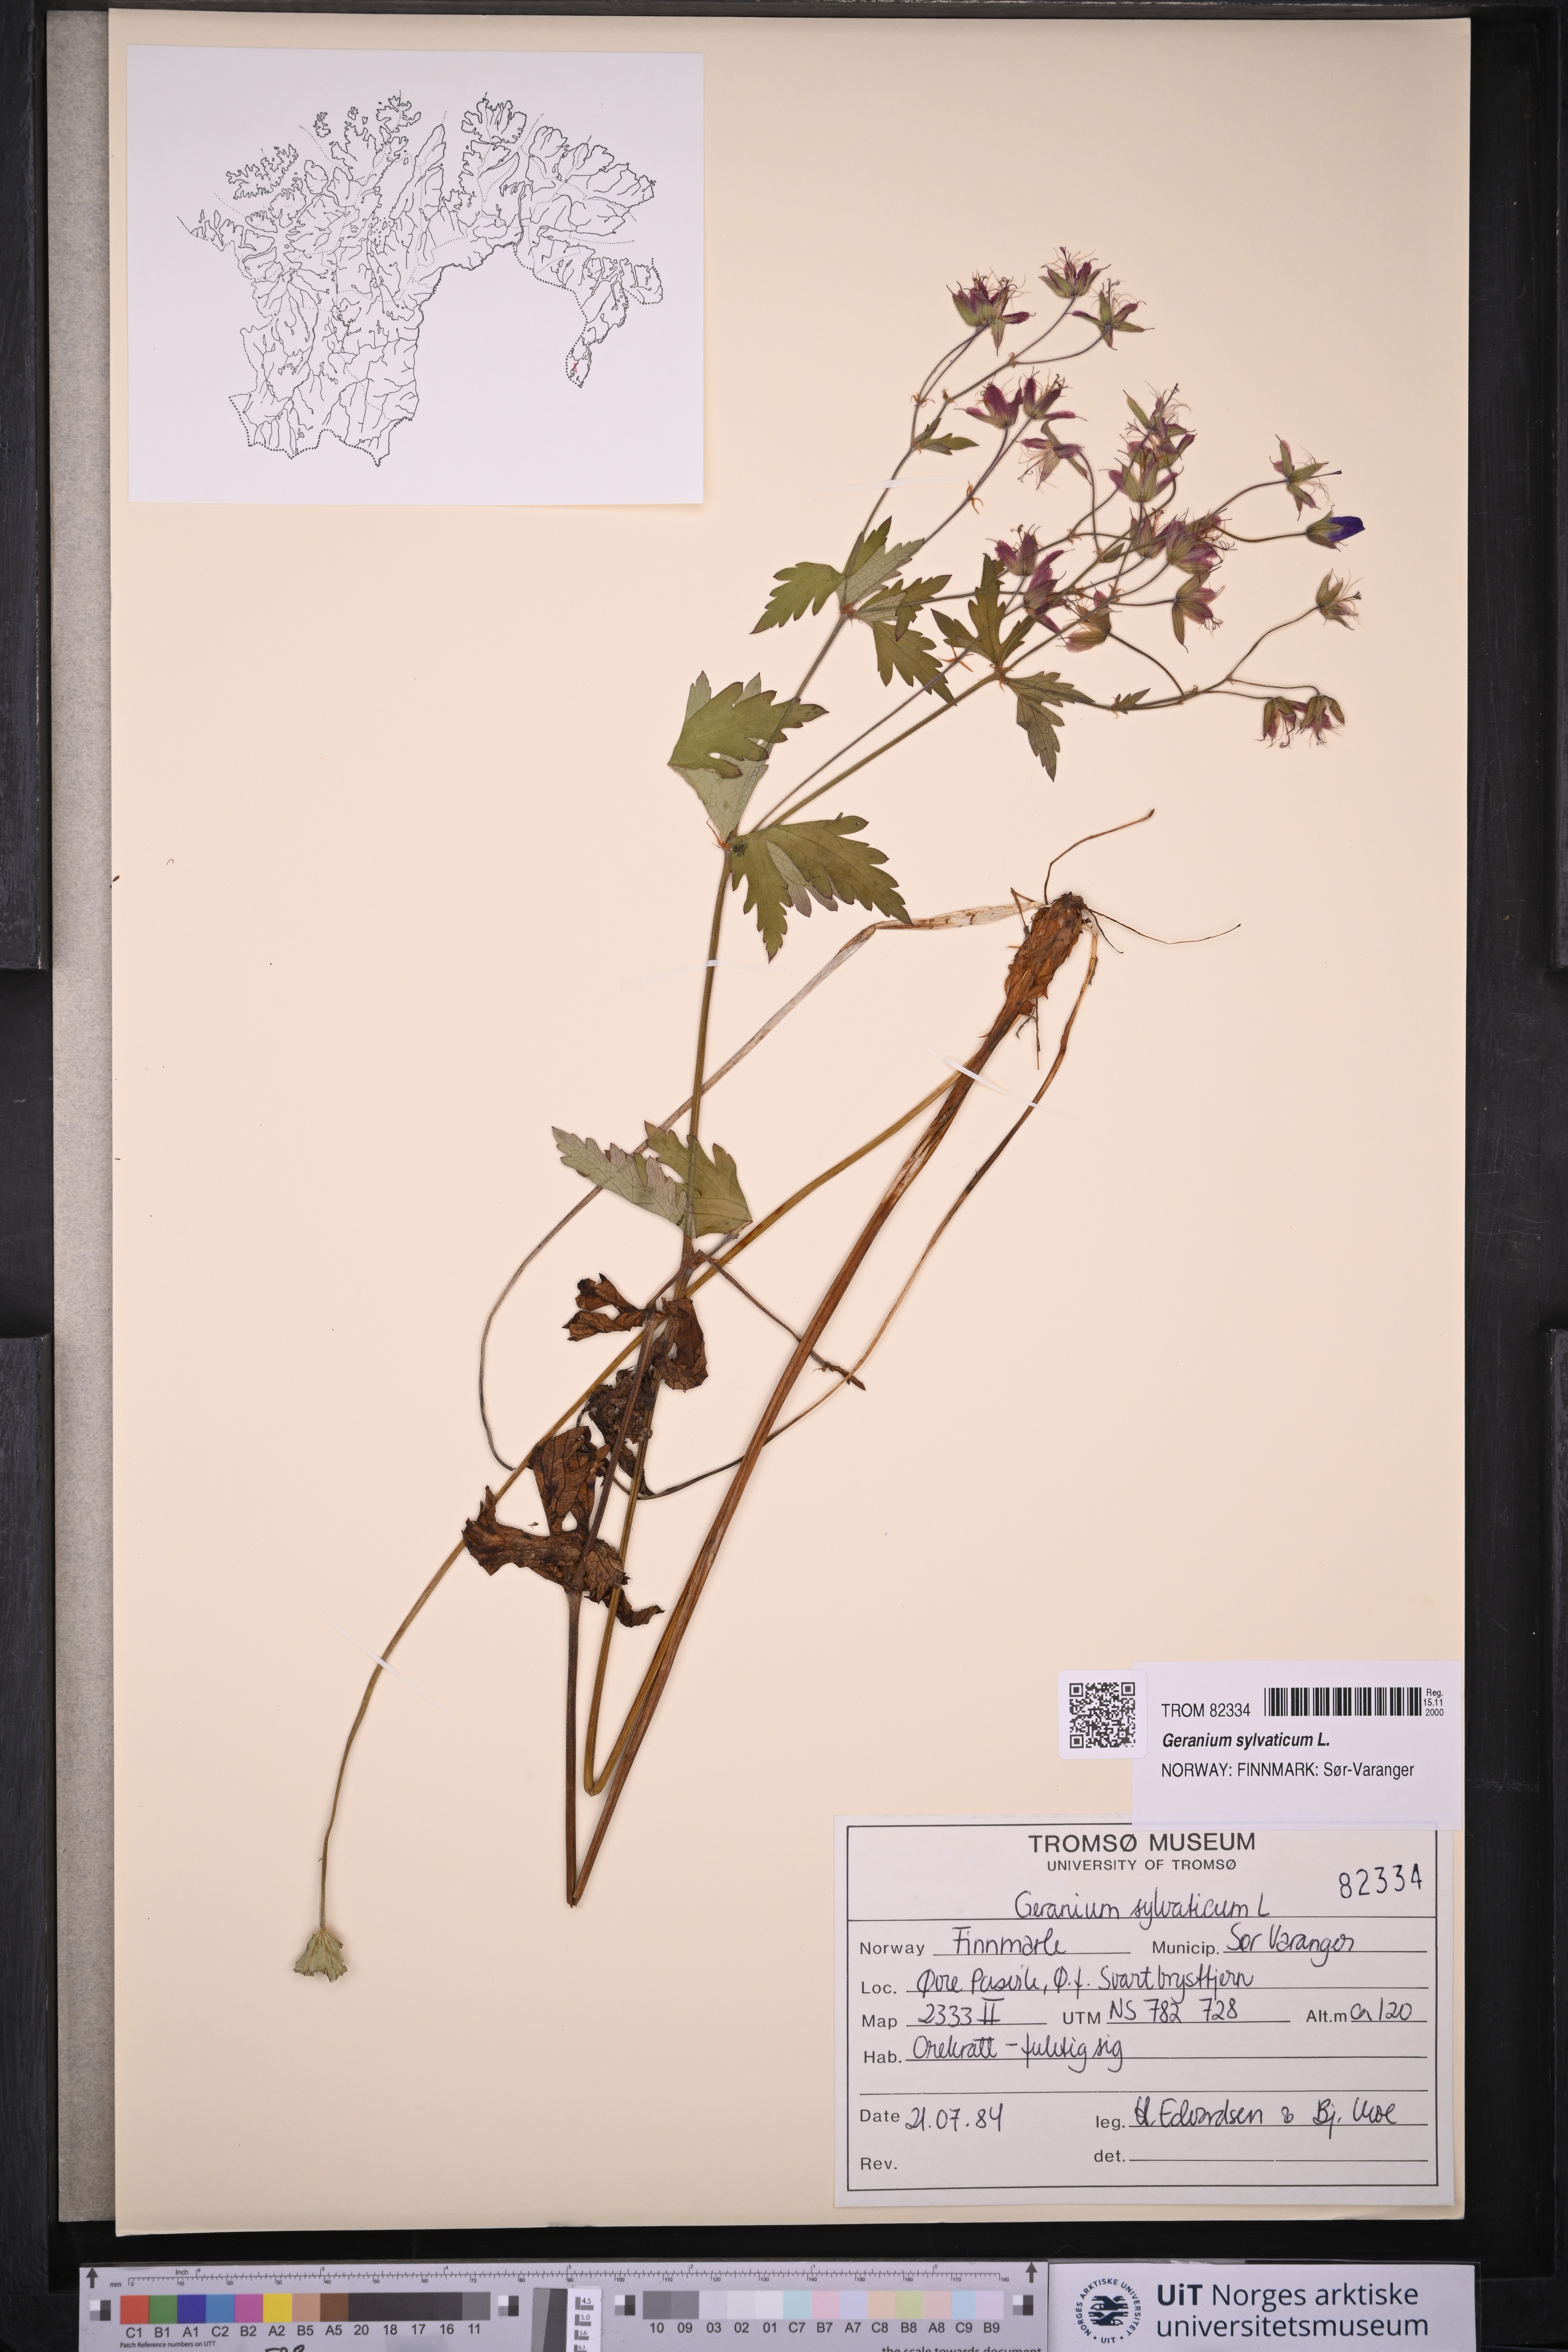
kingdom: Plantae
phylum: Tracheophyta
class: Magnoliopsida
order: Geraniales
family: Geraniaceae
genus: Geranium
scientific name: Geranium sylvaticum
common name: Wood crane's-bill
